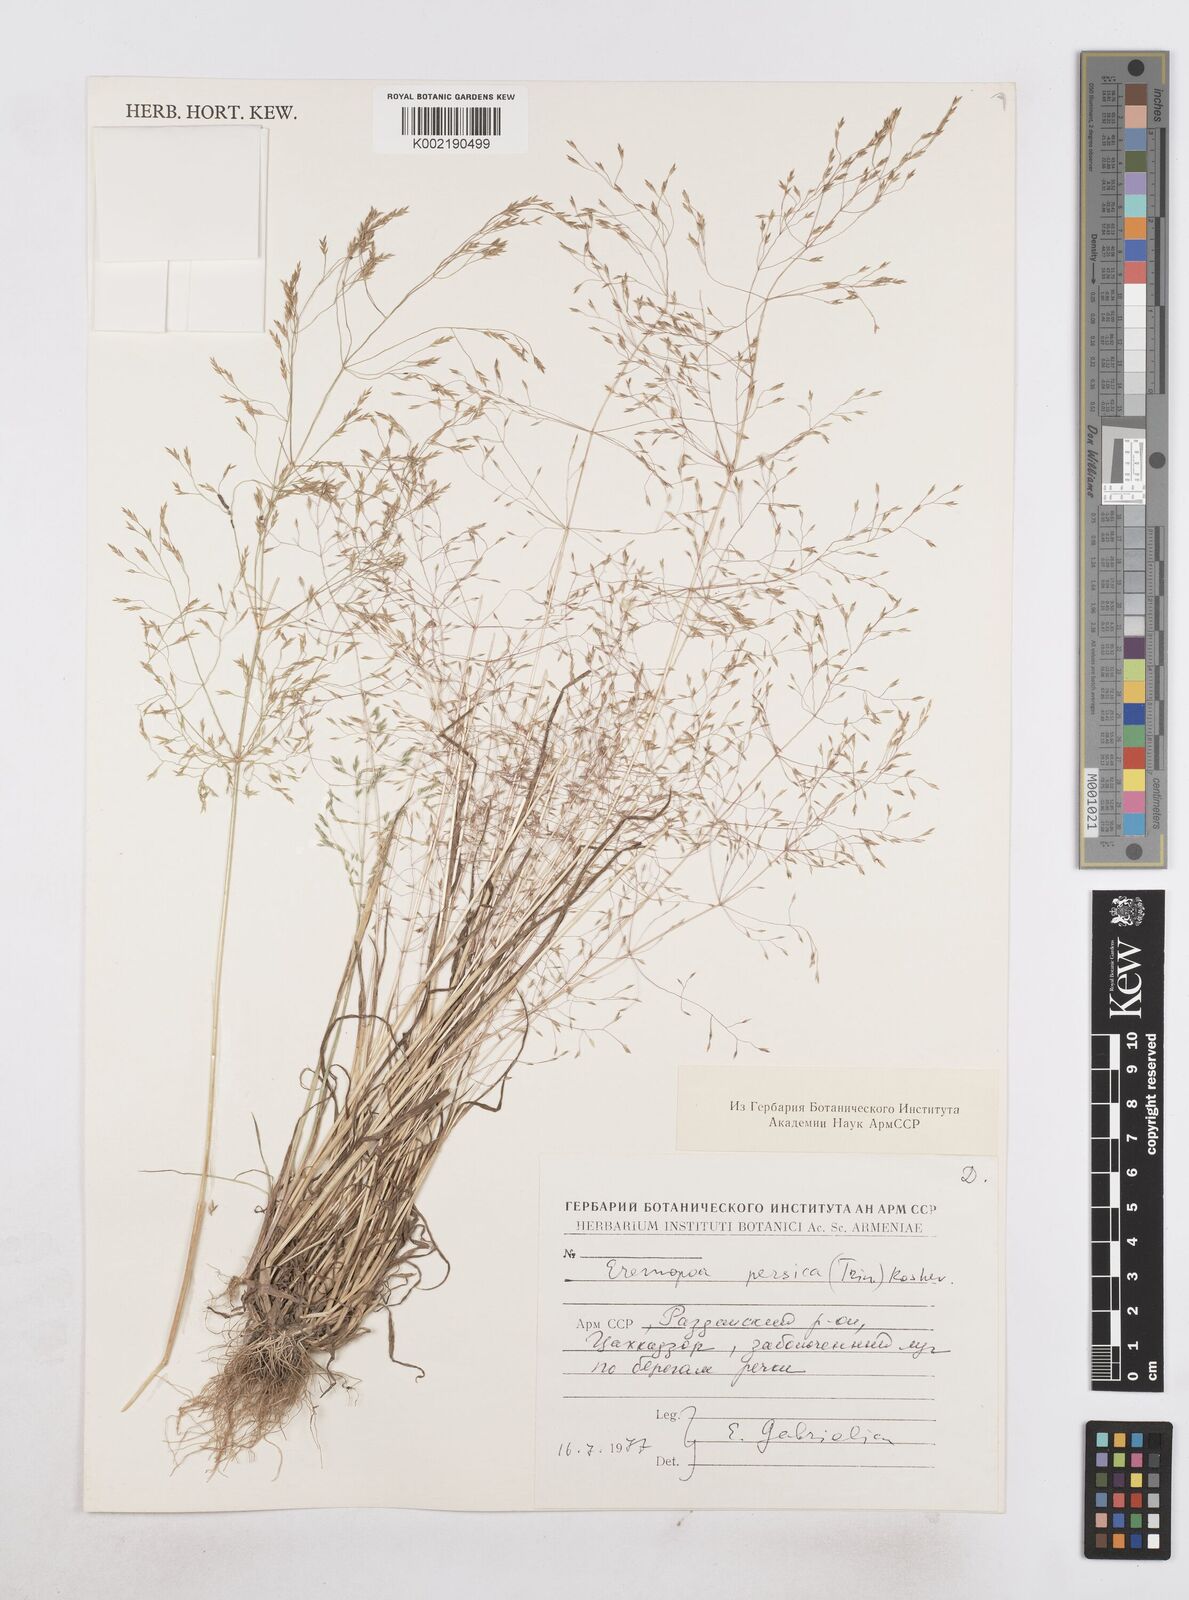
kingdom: Plantae
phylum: Tracheophyta
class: Liliopsida
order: Poales
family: Poaceae
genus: Poa
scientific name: Poa persica
